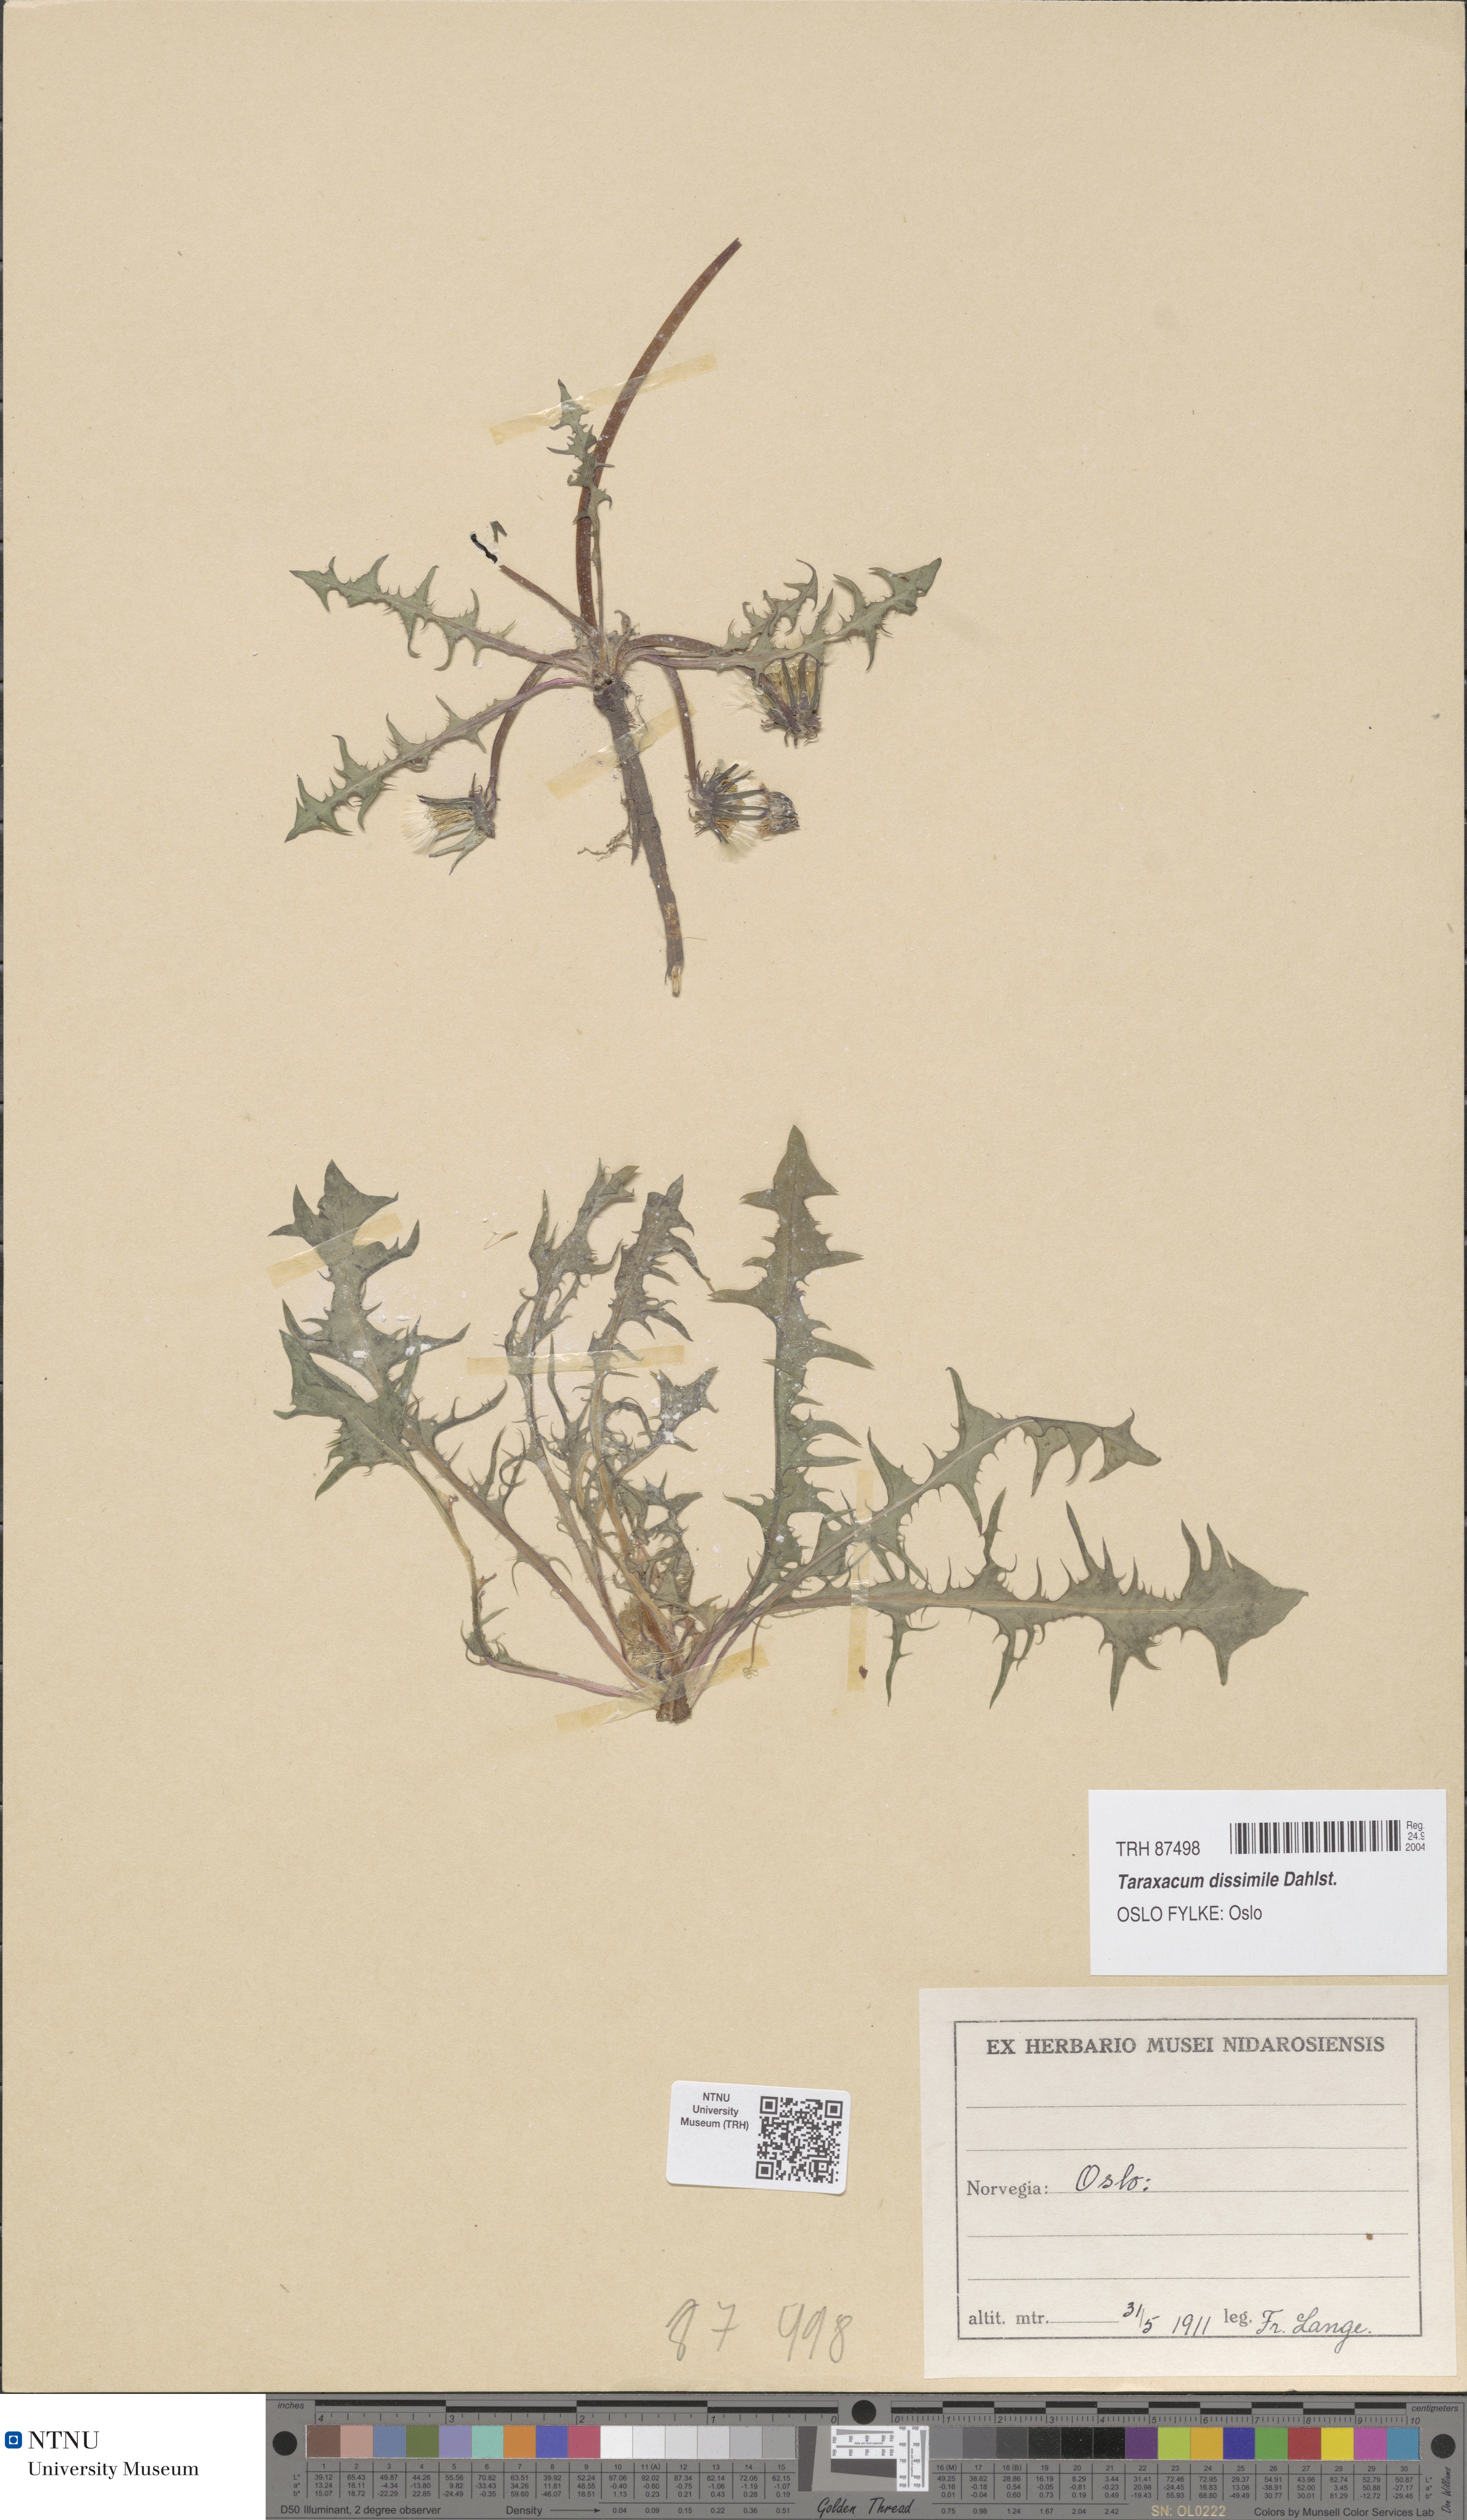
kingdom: Plantae
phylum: Tracheophyta
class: Magnoliopsida
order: Asterales
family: Asteraceae
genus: Taraxacum
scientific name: Taraxacum dissimile
